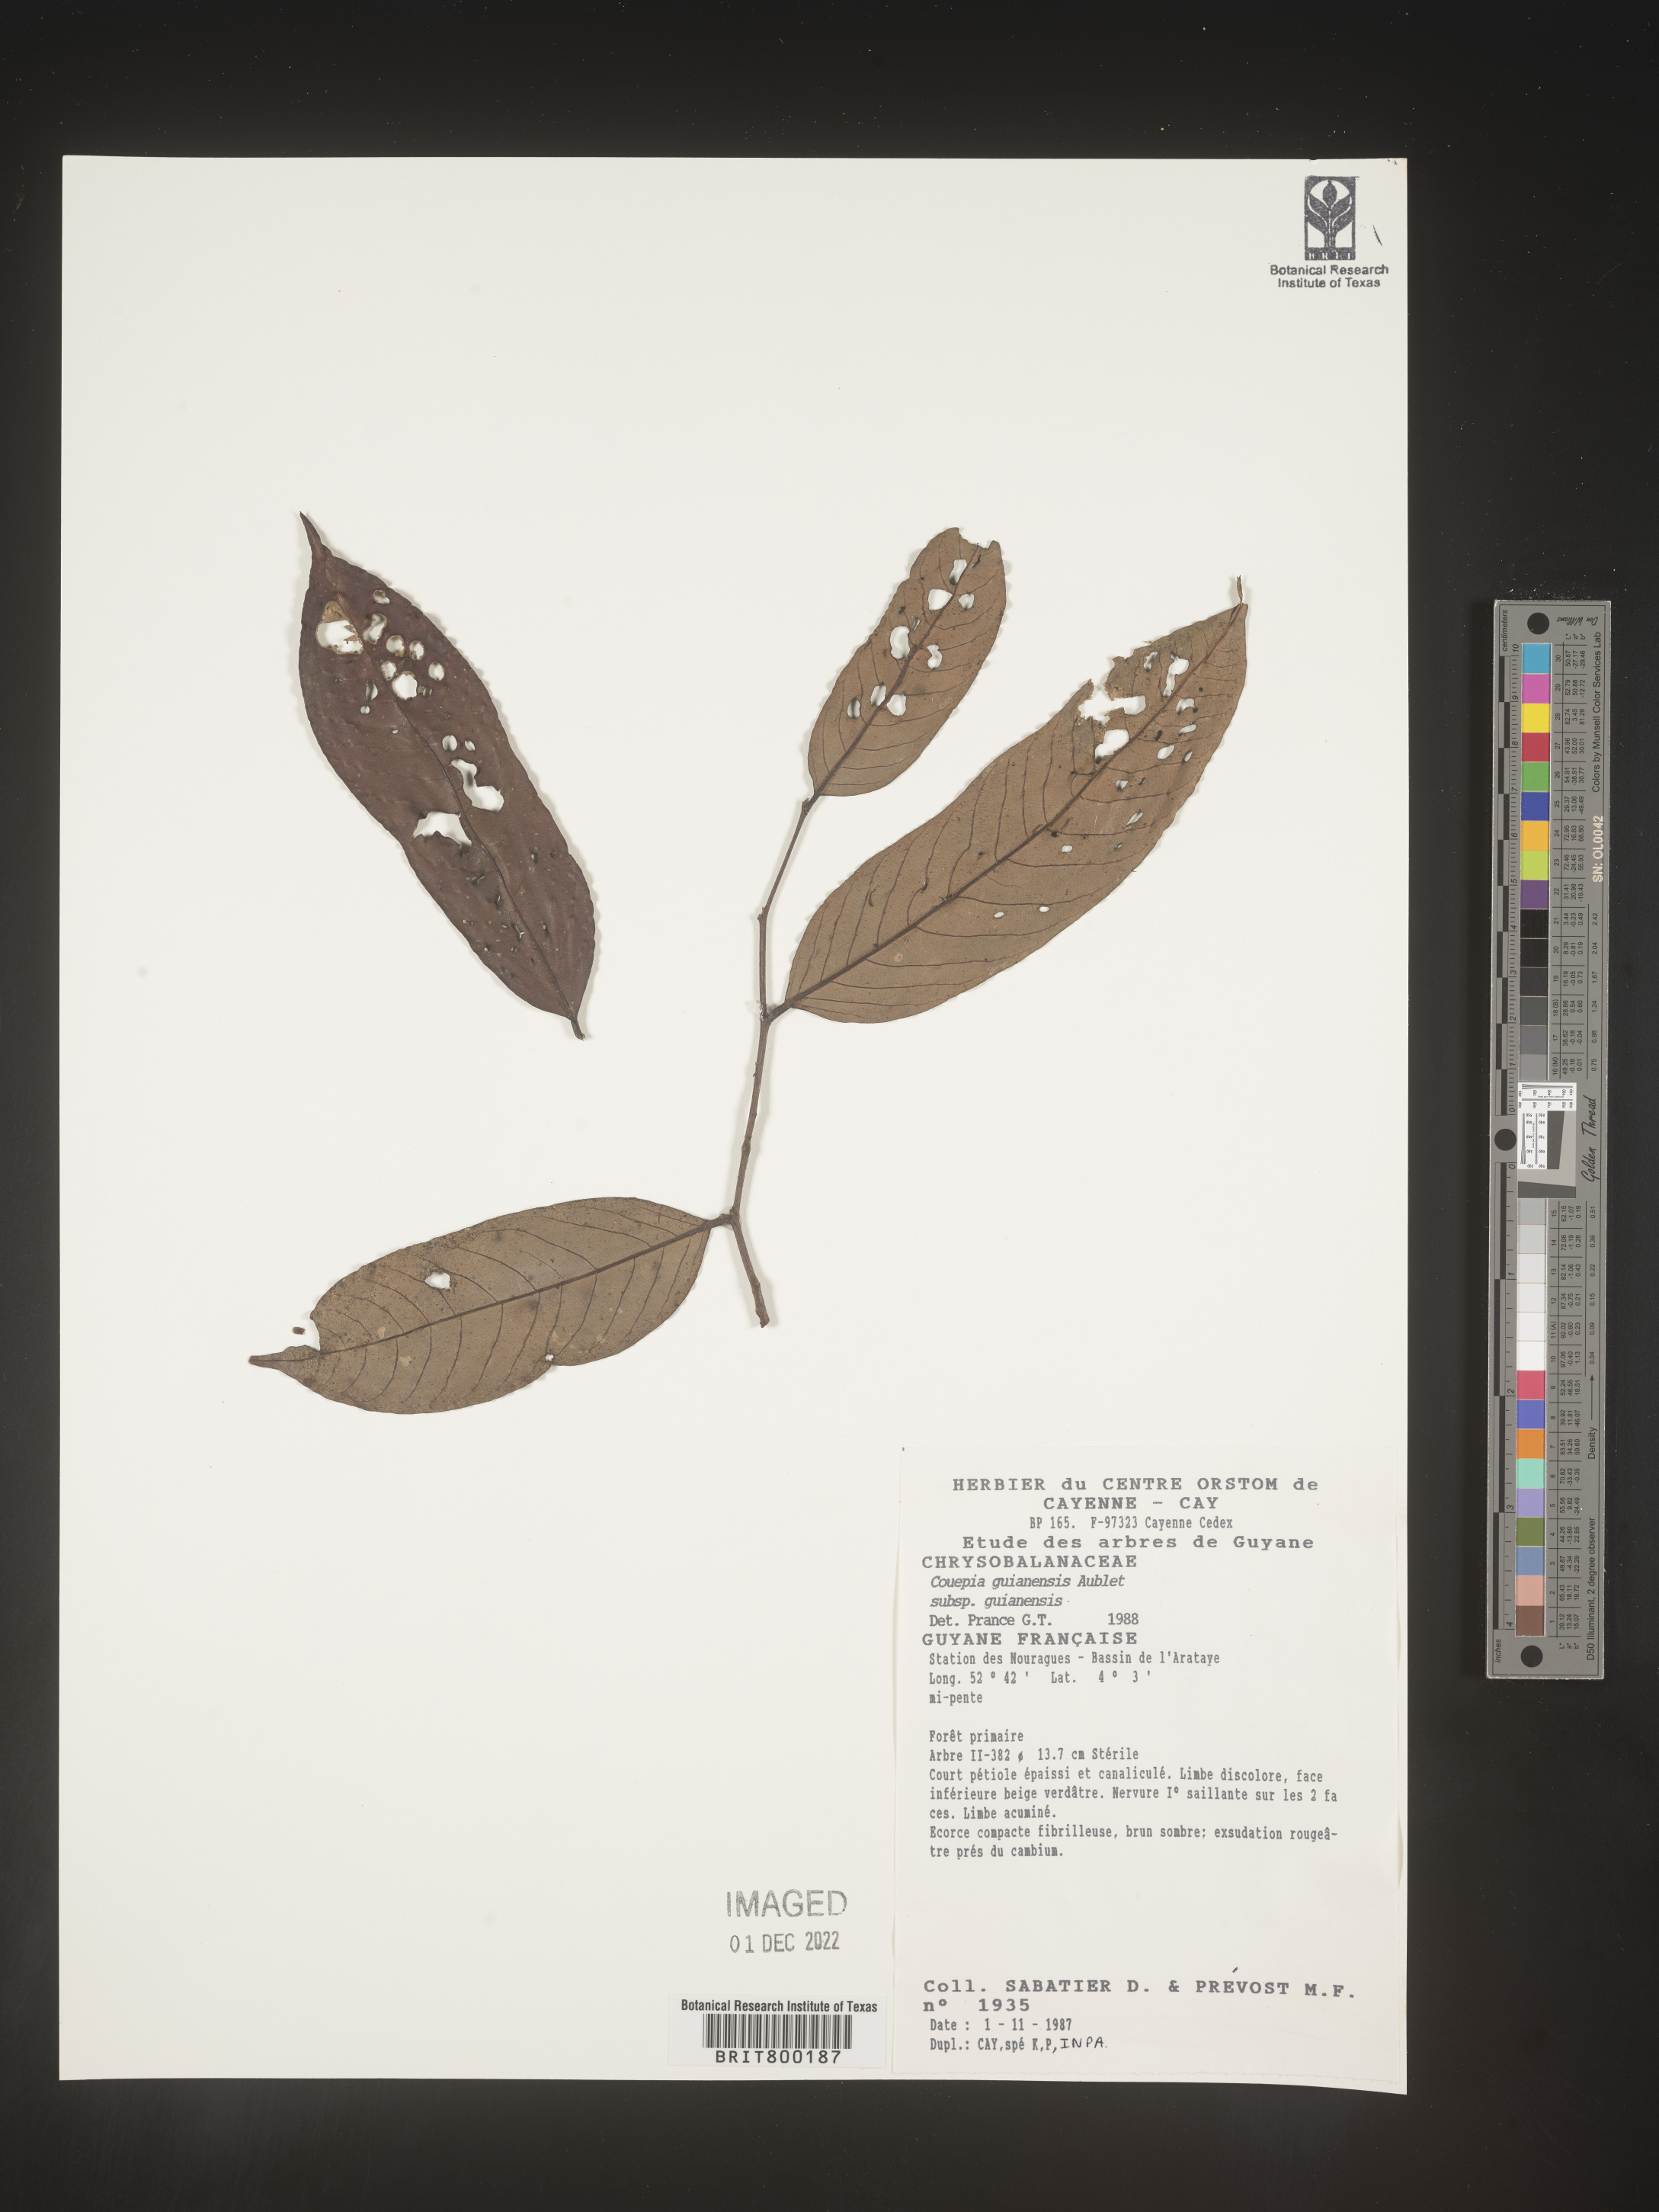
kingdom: Plantae
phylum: Tracheophyta
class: Magnoliopsida
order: Malpighiales
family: Chrysobalanaceae
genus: Couepia
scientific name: Couepia
